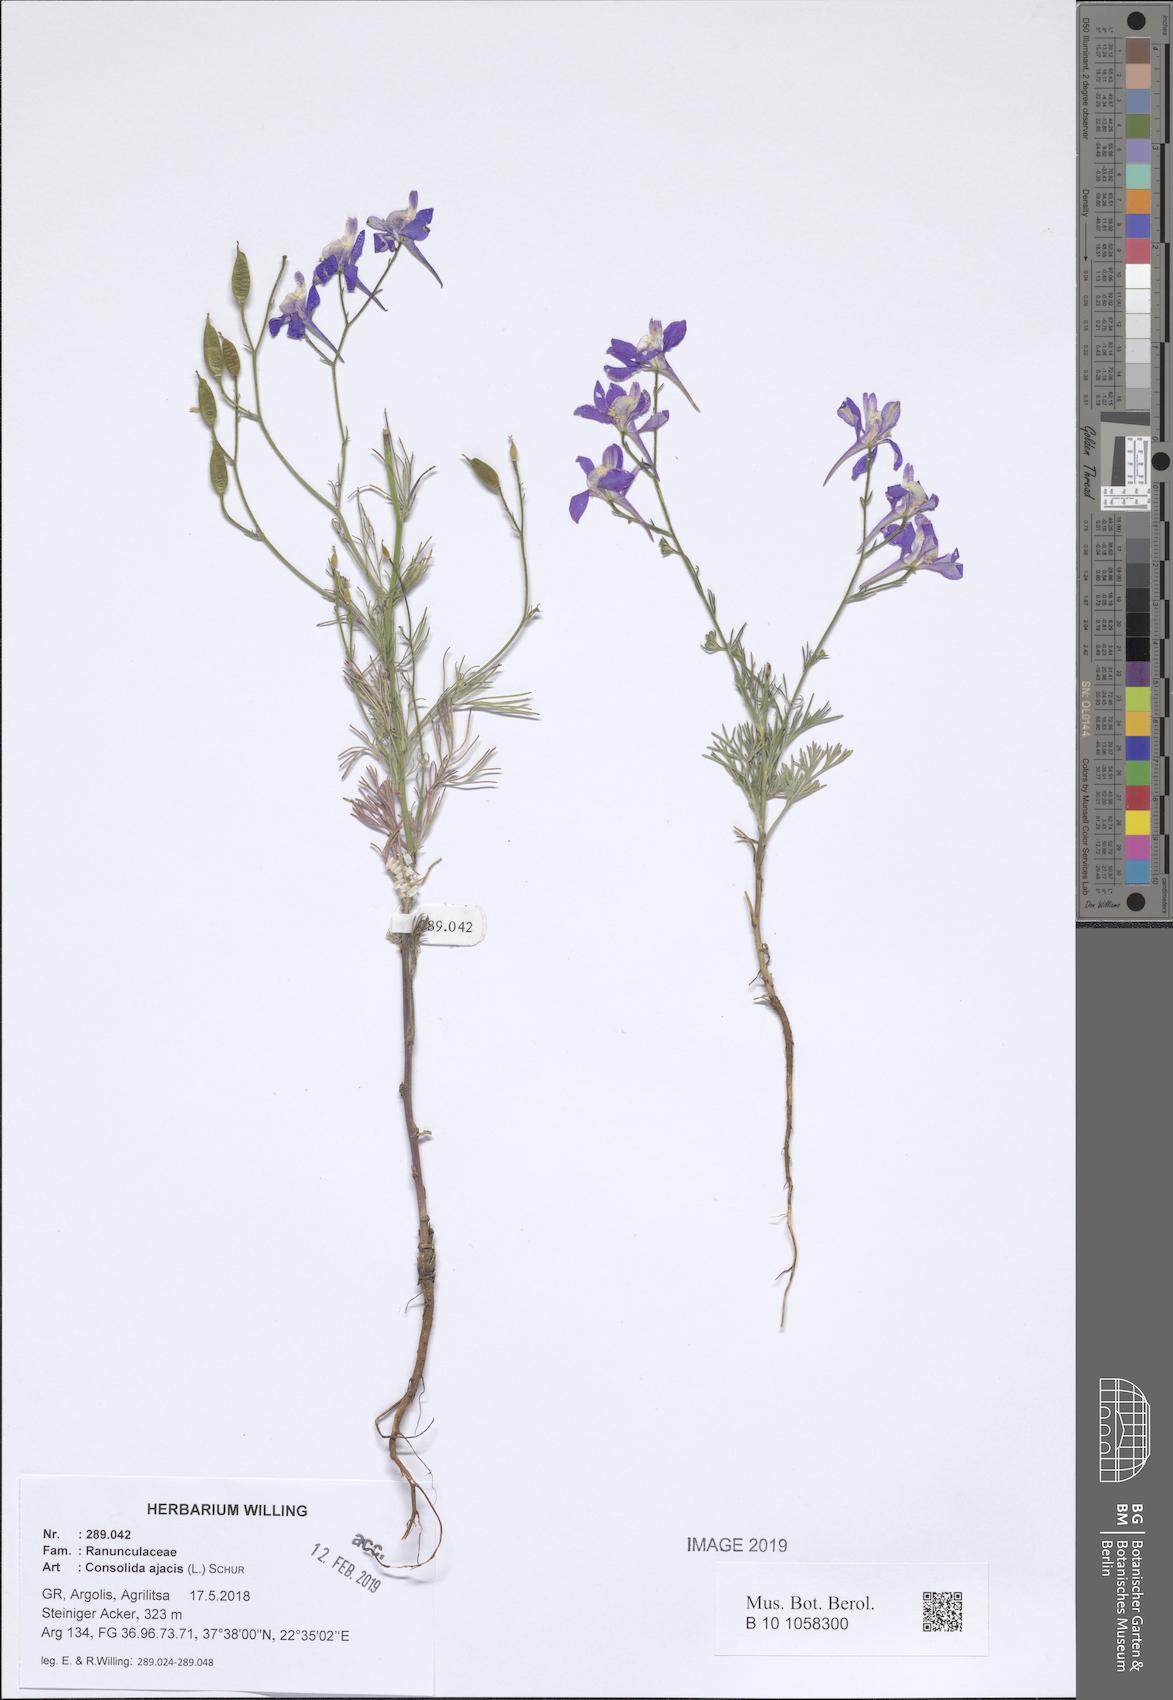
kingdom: Plantae
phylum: Tracheophyta
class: Magnoliopsida
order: Ranunculales
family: Ranunculaceae
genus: Delphinium
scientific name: Delphinium ajacis
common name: Doubtful knight's-spur
